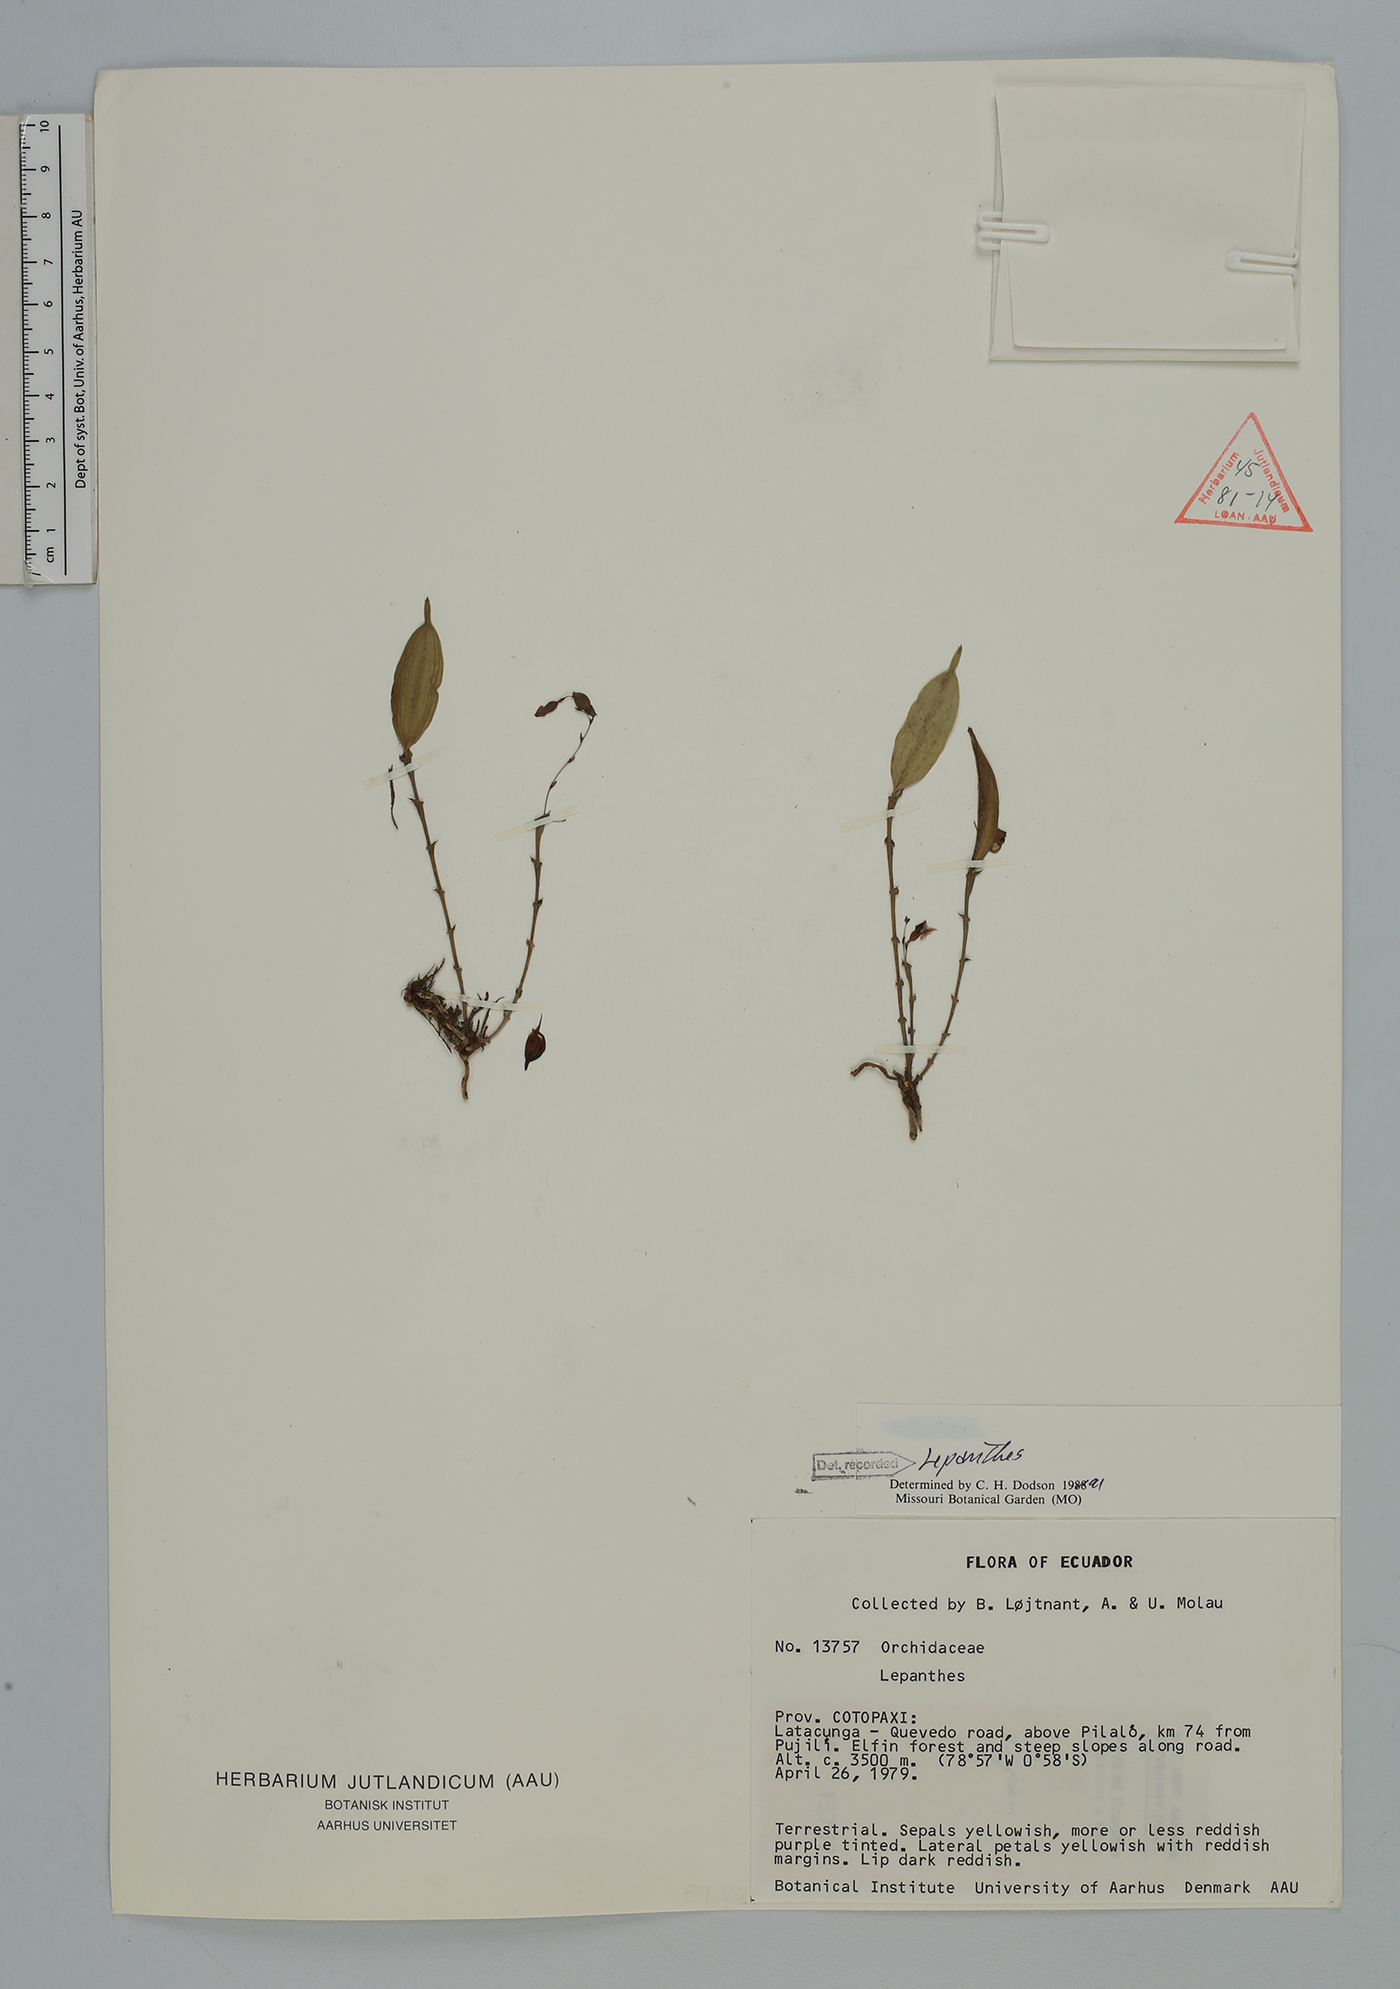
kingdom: Plantae
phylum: Tracheophyta
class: Liliopsida
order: Asparagales
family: Orchidaceae
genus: Lepanthes
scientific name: Lepanthes
